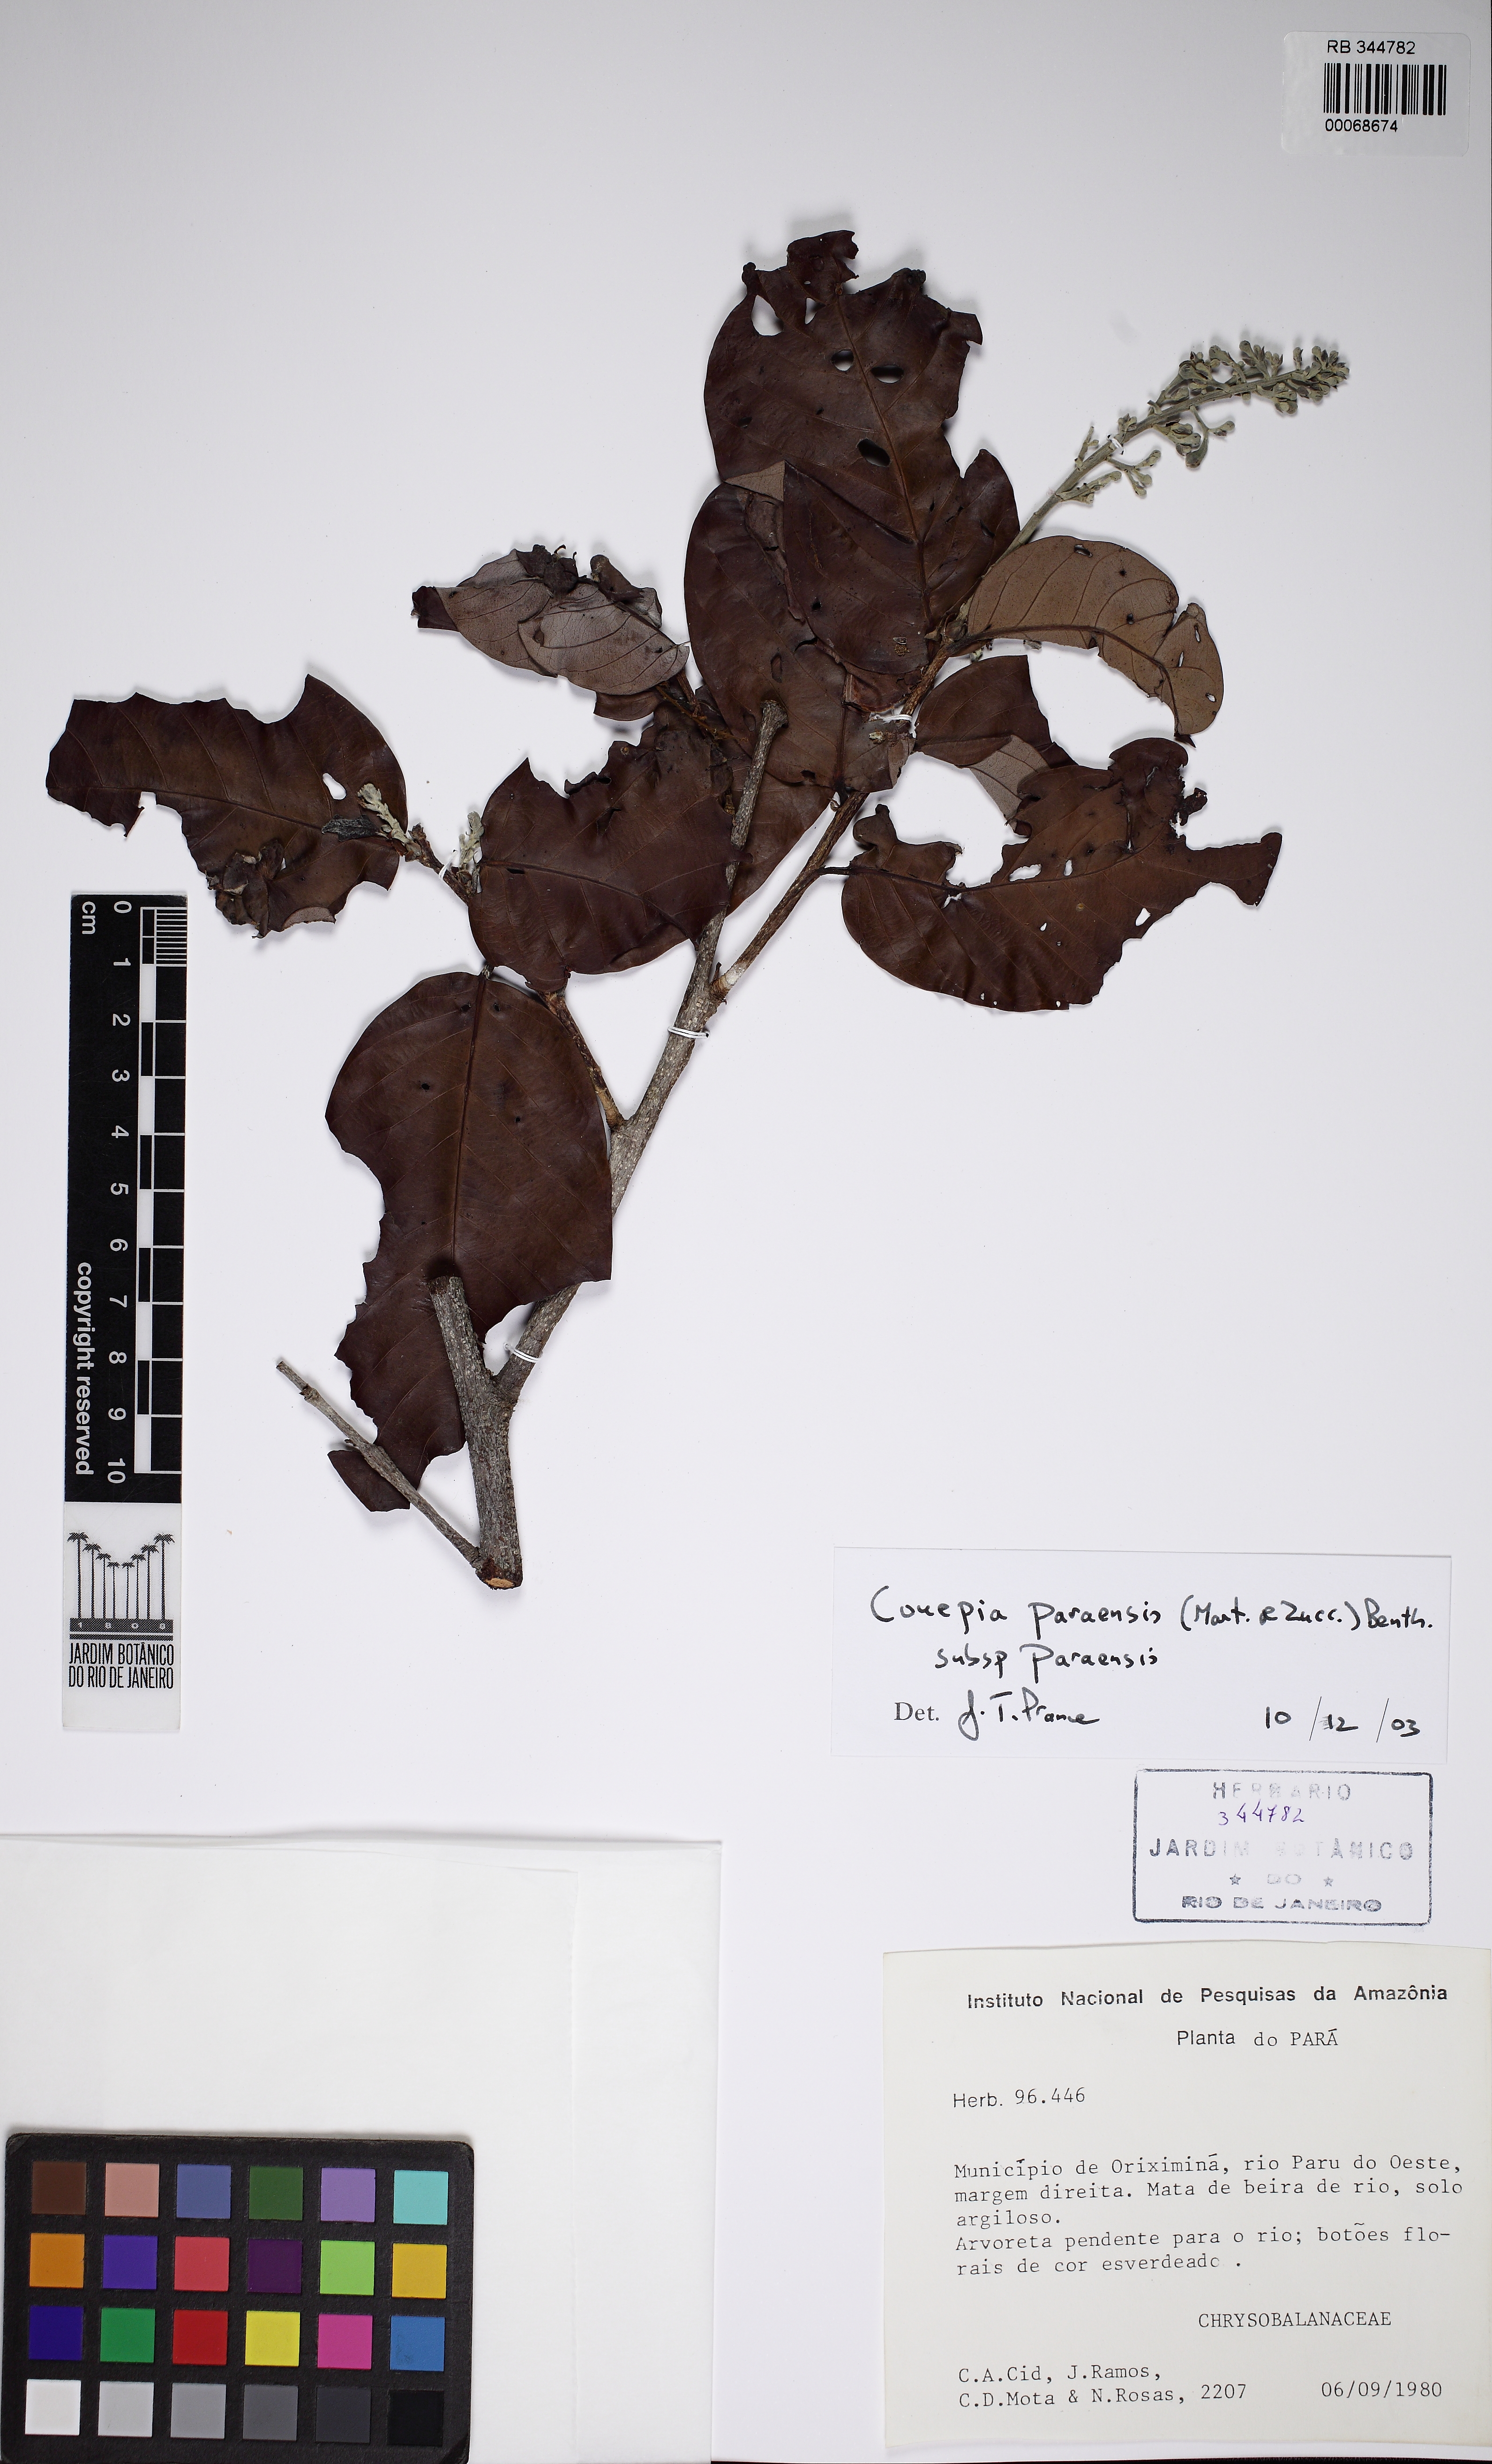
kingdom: Plantae
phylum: Tracheophyta
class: Magnoliopsida
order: Malpighiales
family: Chrysobalanaceae
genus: Couepia
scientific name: Couepia paraensis
